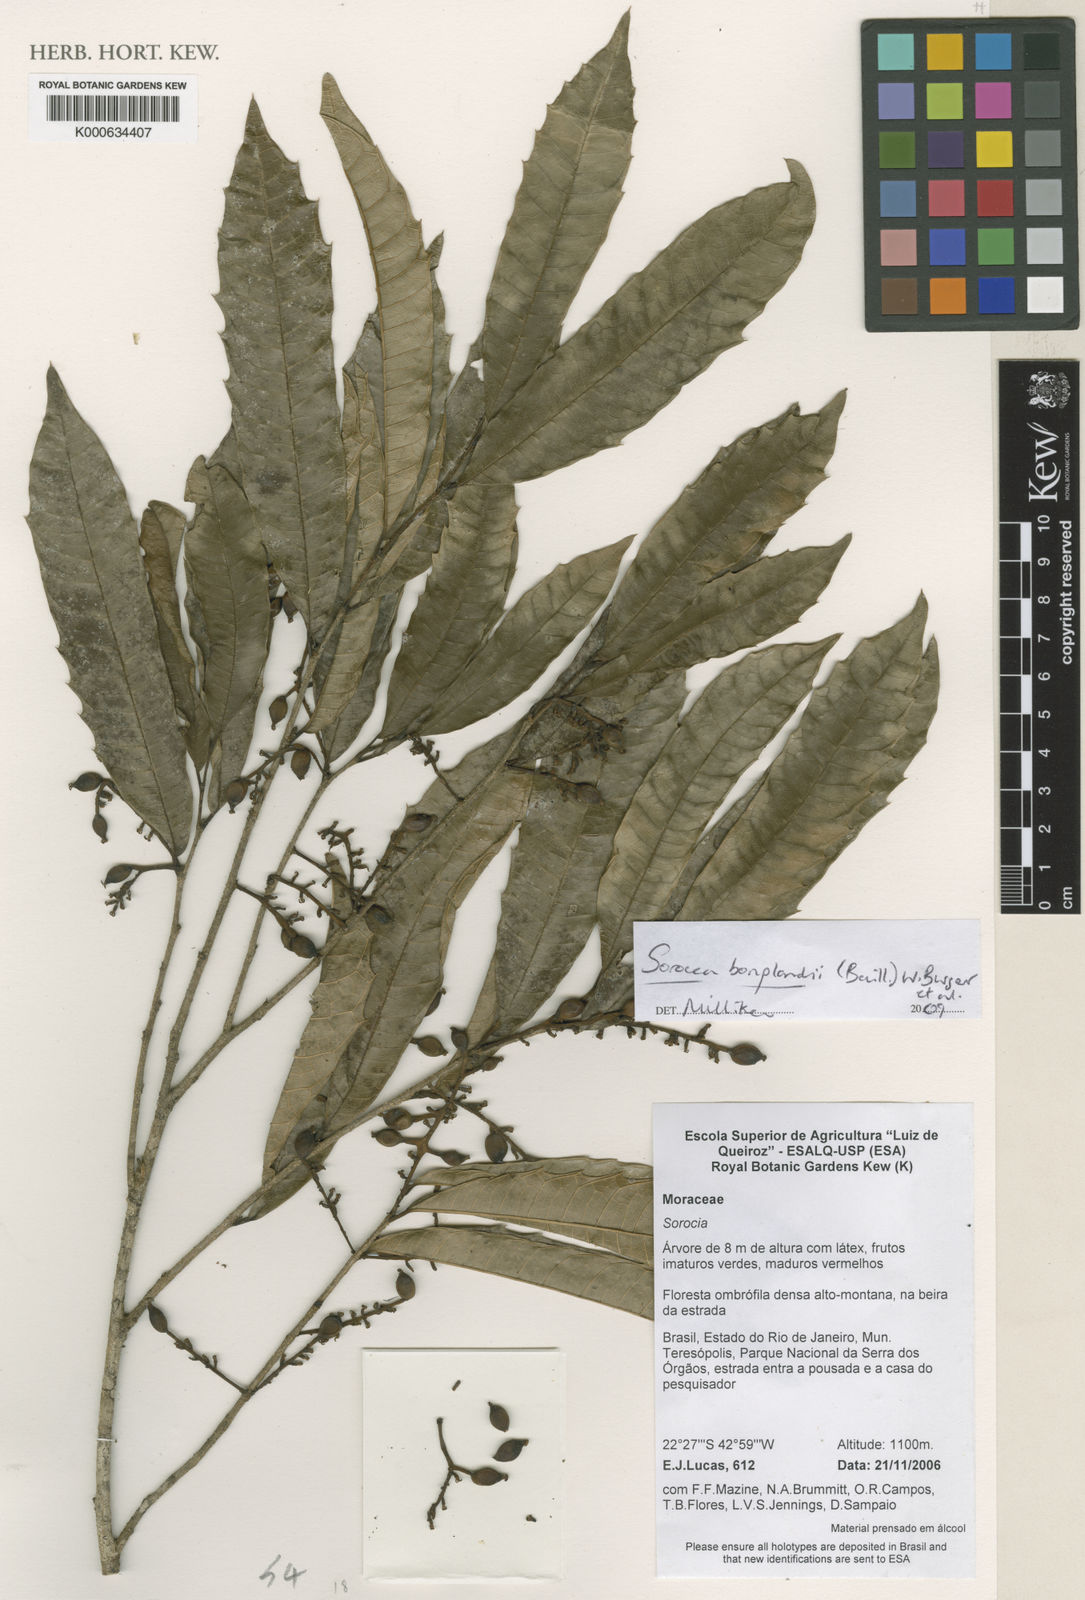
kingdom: Plantae
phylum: Tracheophyta
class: Magnoliopsida
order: Rosales
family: Moraceae
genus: Sorocea
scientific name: Sorocea
